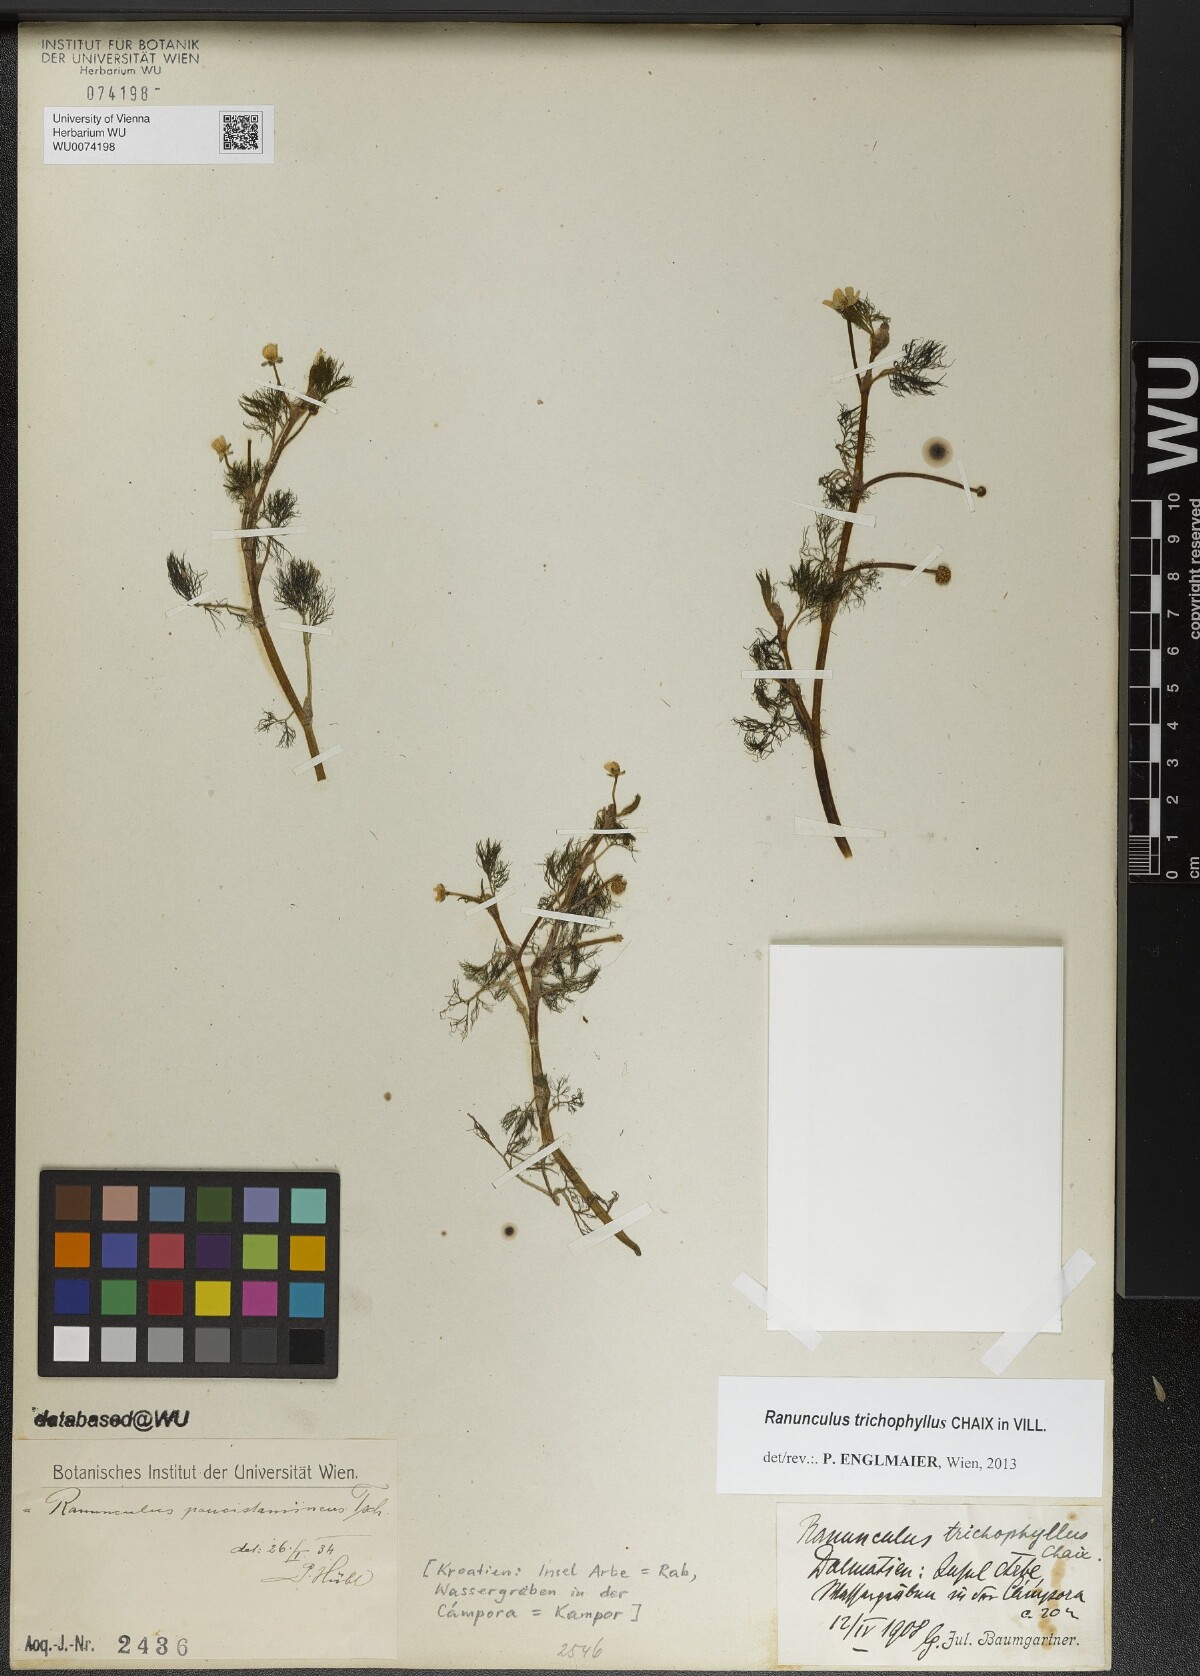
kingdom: Plantae
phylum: Tracheophyta
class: Magnoliopsida
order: Ranunculales
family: Ranunculaceae
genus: Ranunculus
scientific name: Ranunculus trichophyllus
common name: Thread-leaved water-crowfoot
